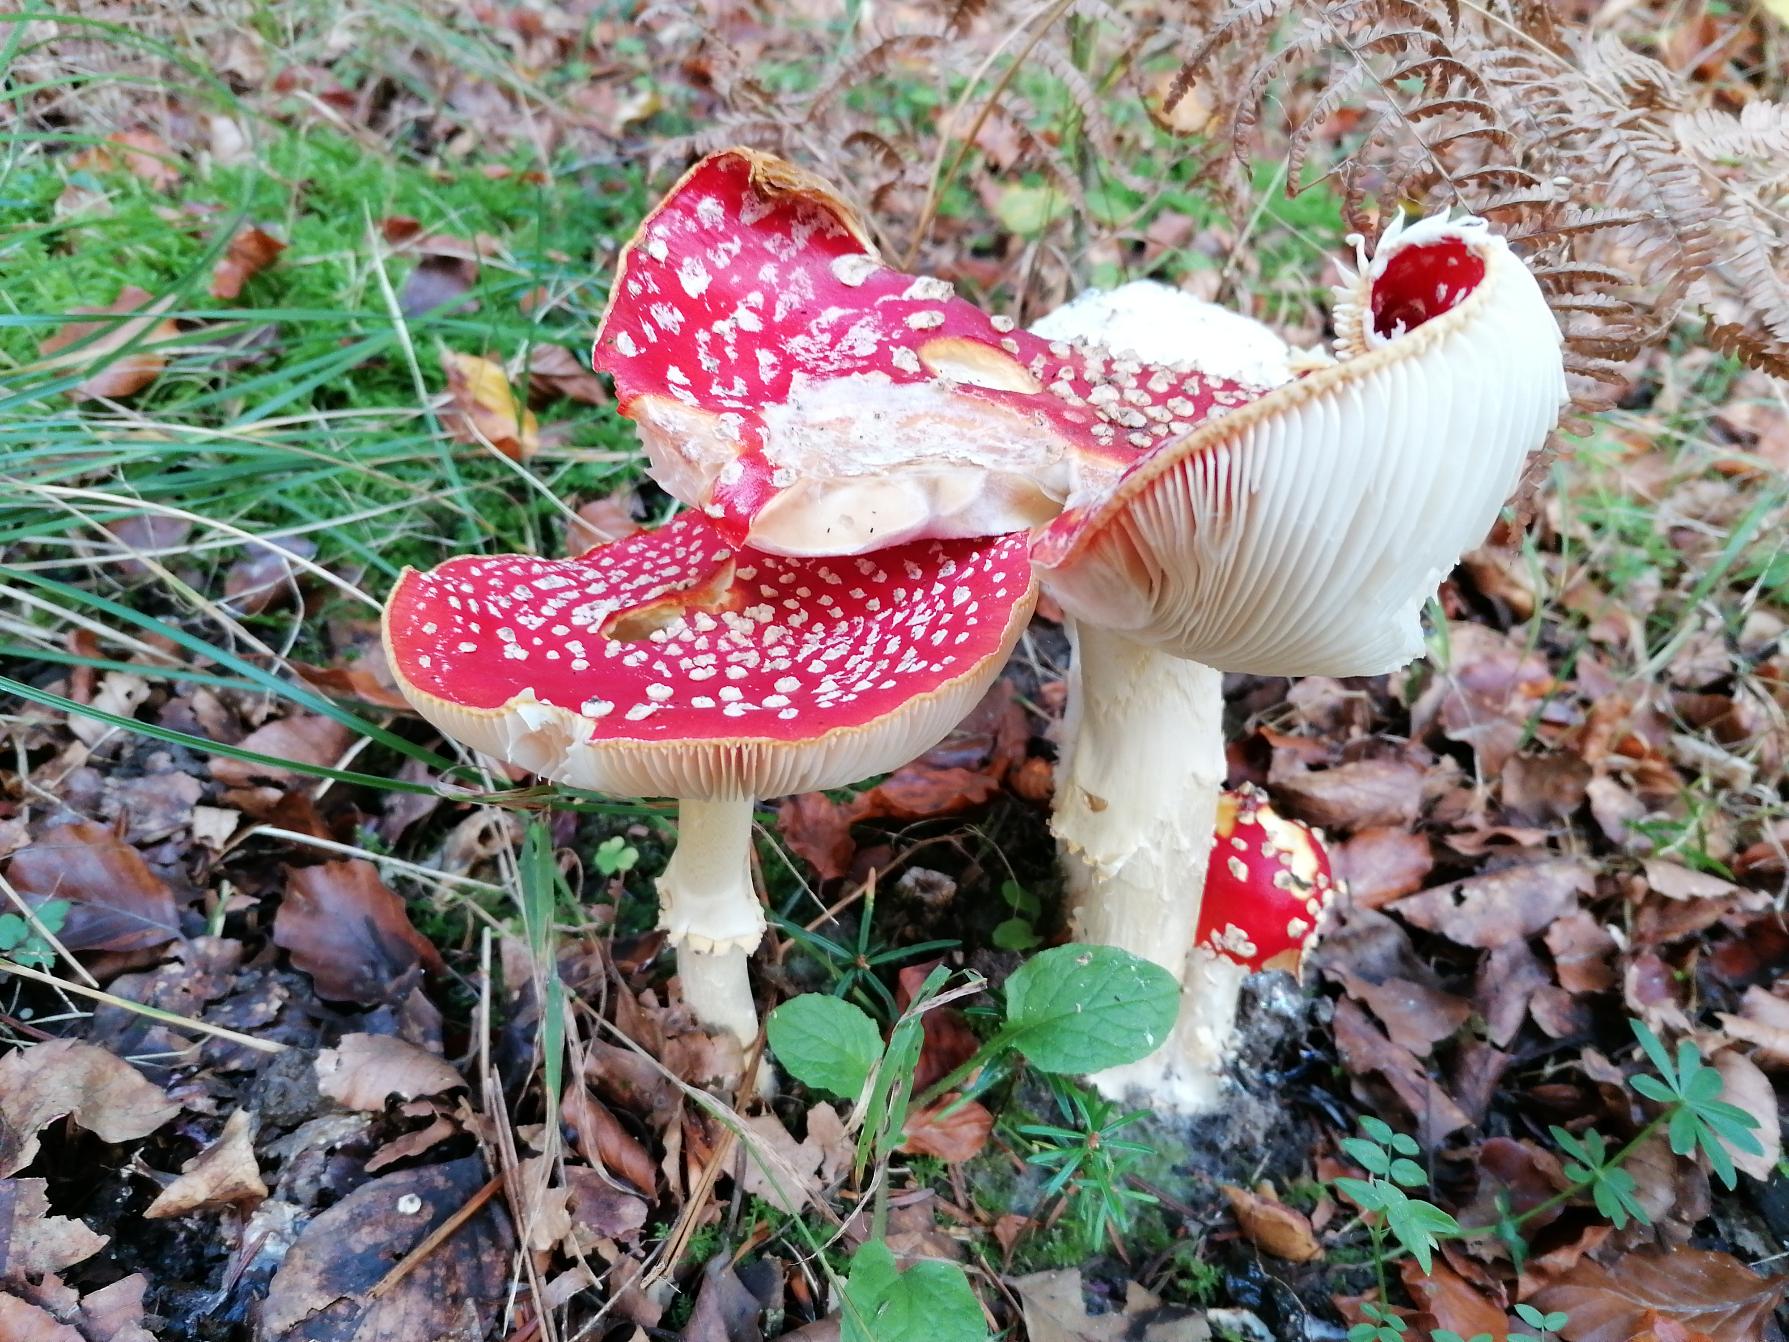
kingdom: Fungi
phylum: Basidiomycota
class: Agaricomycetes
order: Agaricales
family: Amanitaceae
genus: Amanita
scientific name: Amanita muscaria
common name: Rød fluesvamp
